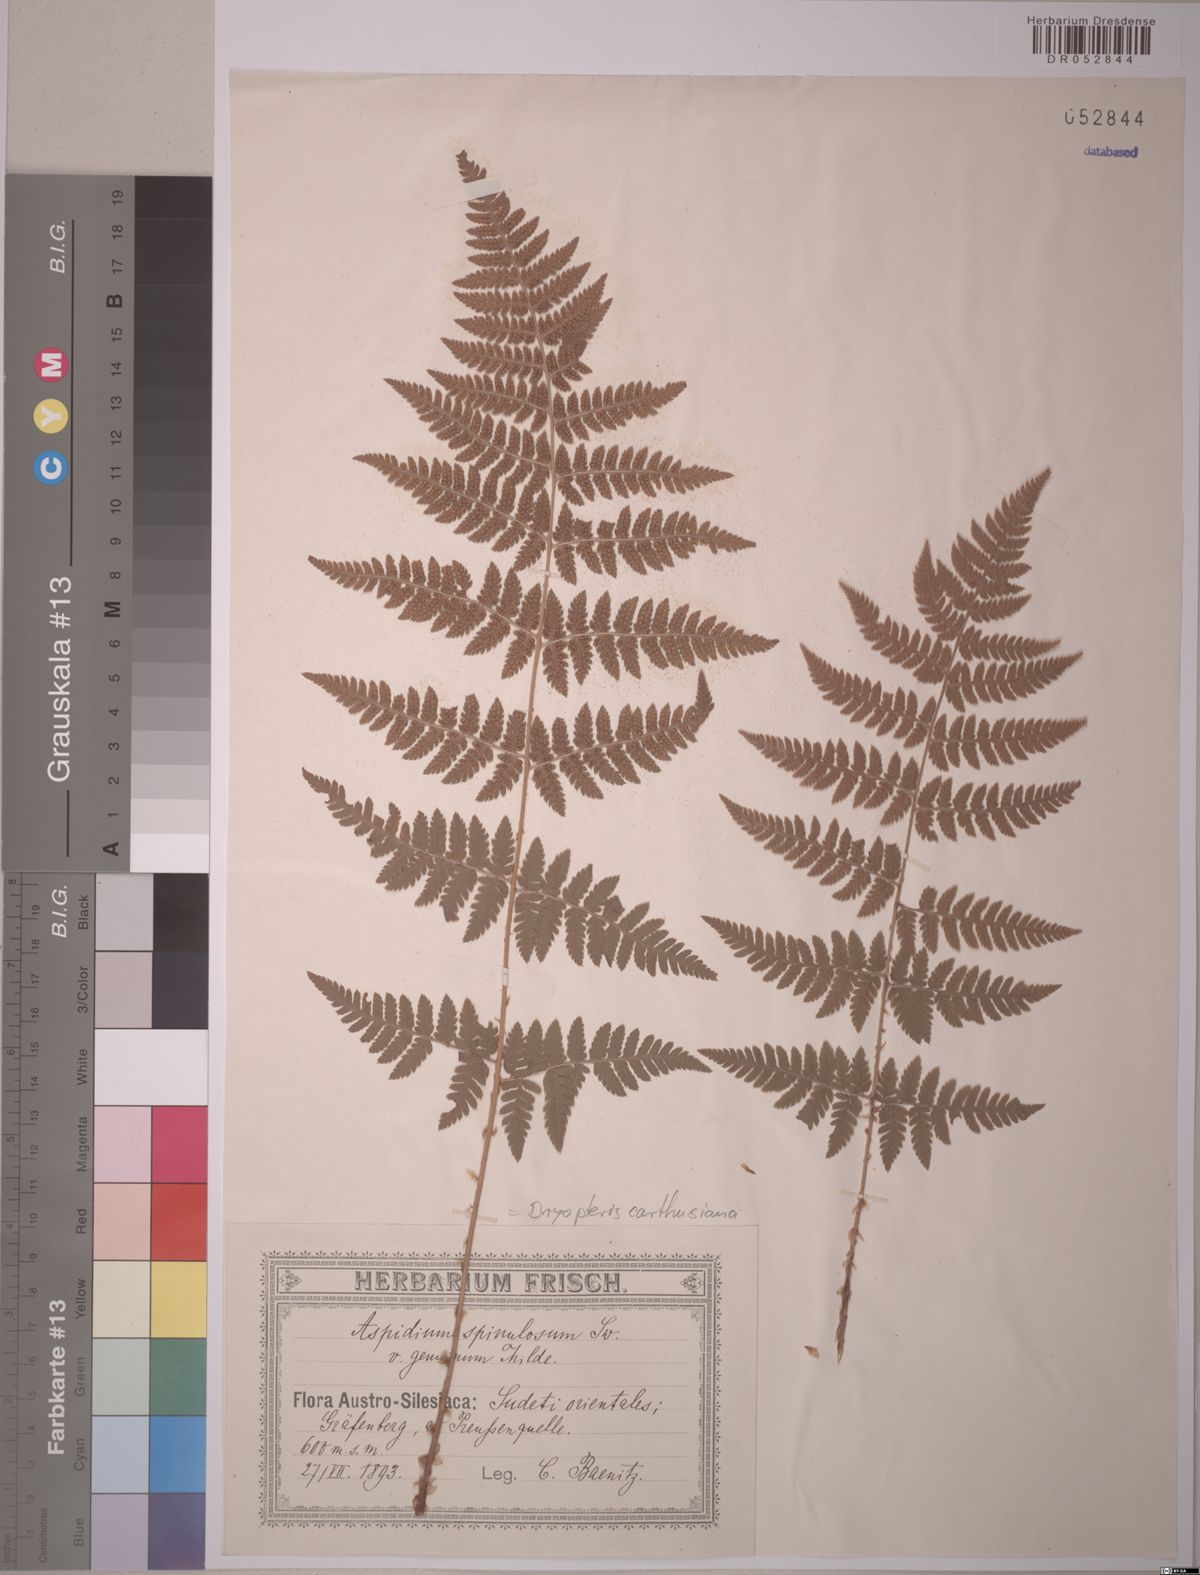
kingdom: Plantae
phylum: Tracheophyta
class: Polypodiopsida
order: Polypodiales
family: Dryopteridaceae
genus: Dryopteris
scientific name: Dryopteris carthusiana
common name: Narrow buckler-fern
